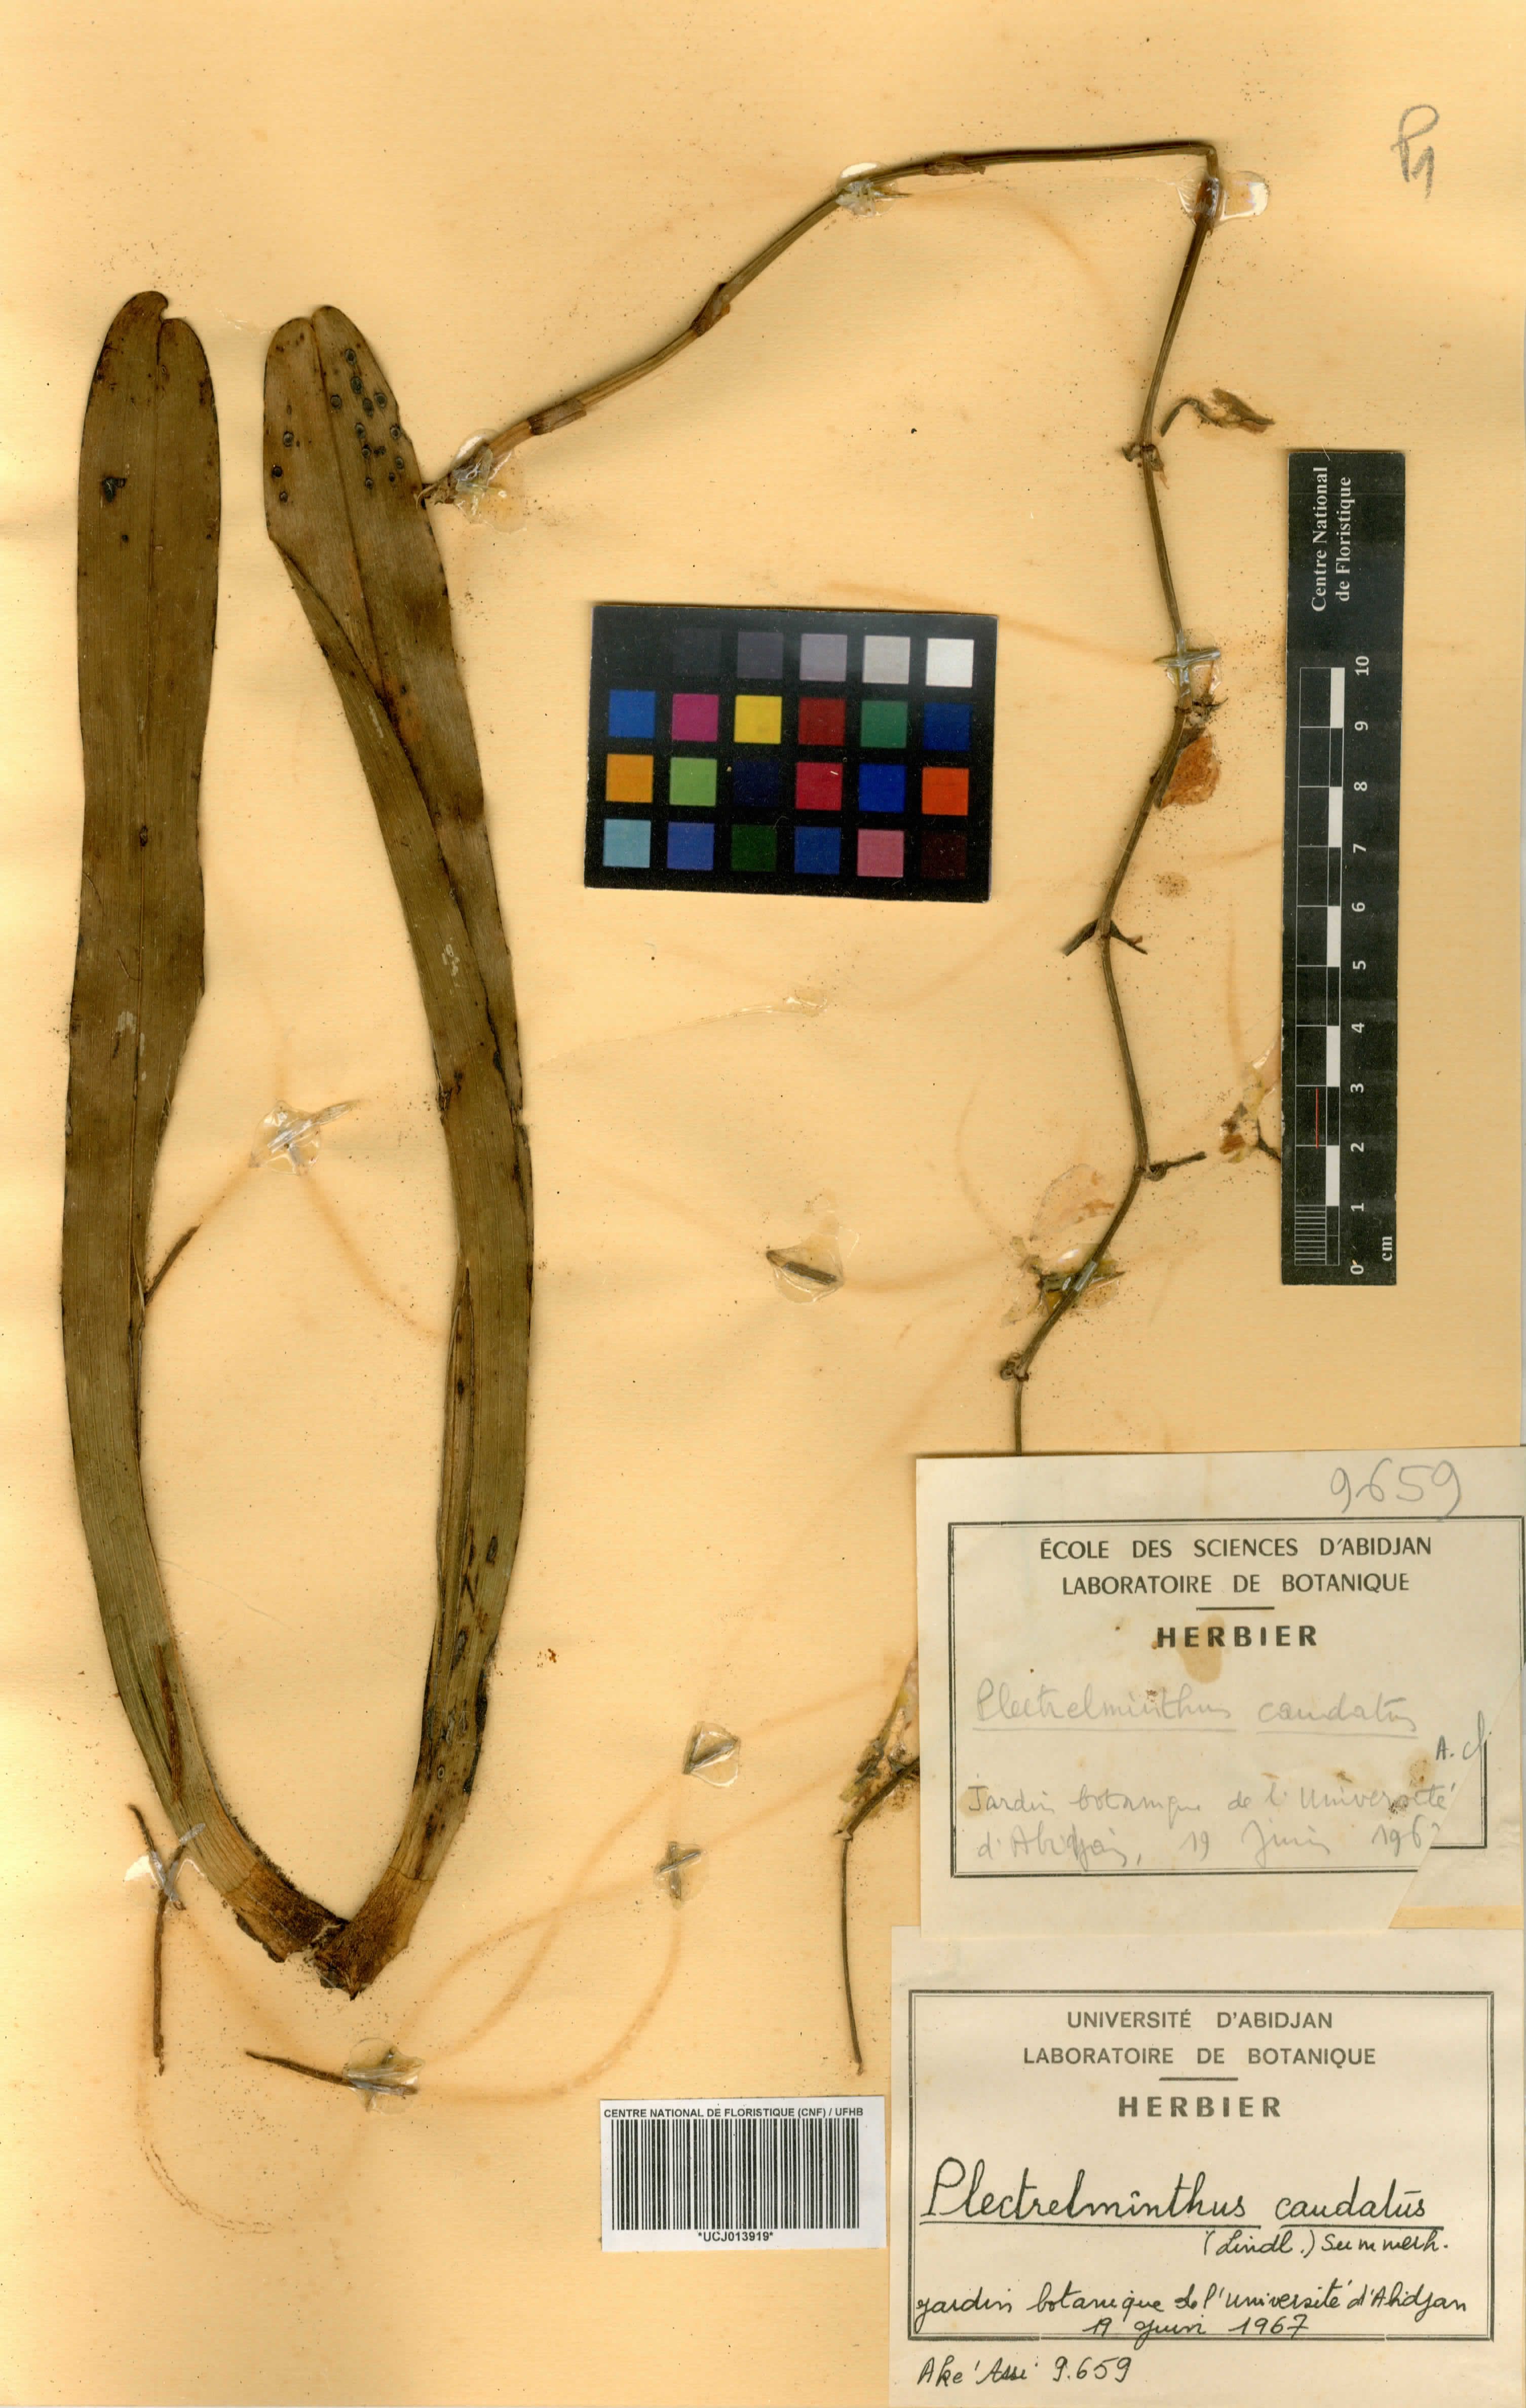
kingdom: Plantae
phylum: Tracheophyta
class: Liliopsida
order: Asparagales
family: Orchidaceae
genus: Plectrelminthus
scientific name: Plectrelminthus caudatus
